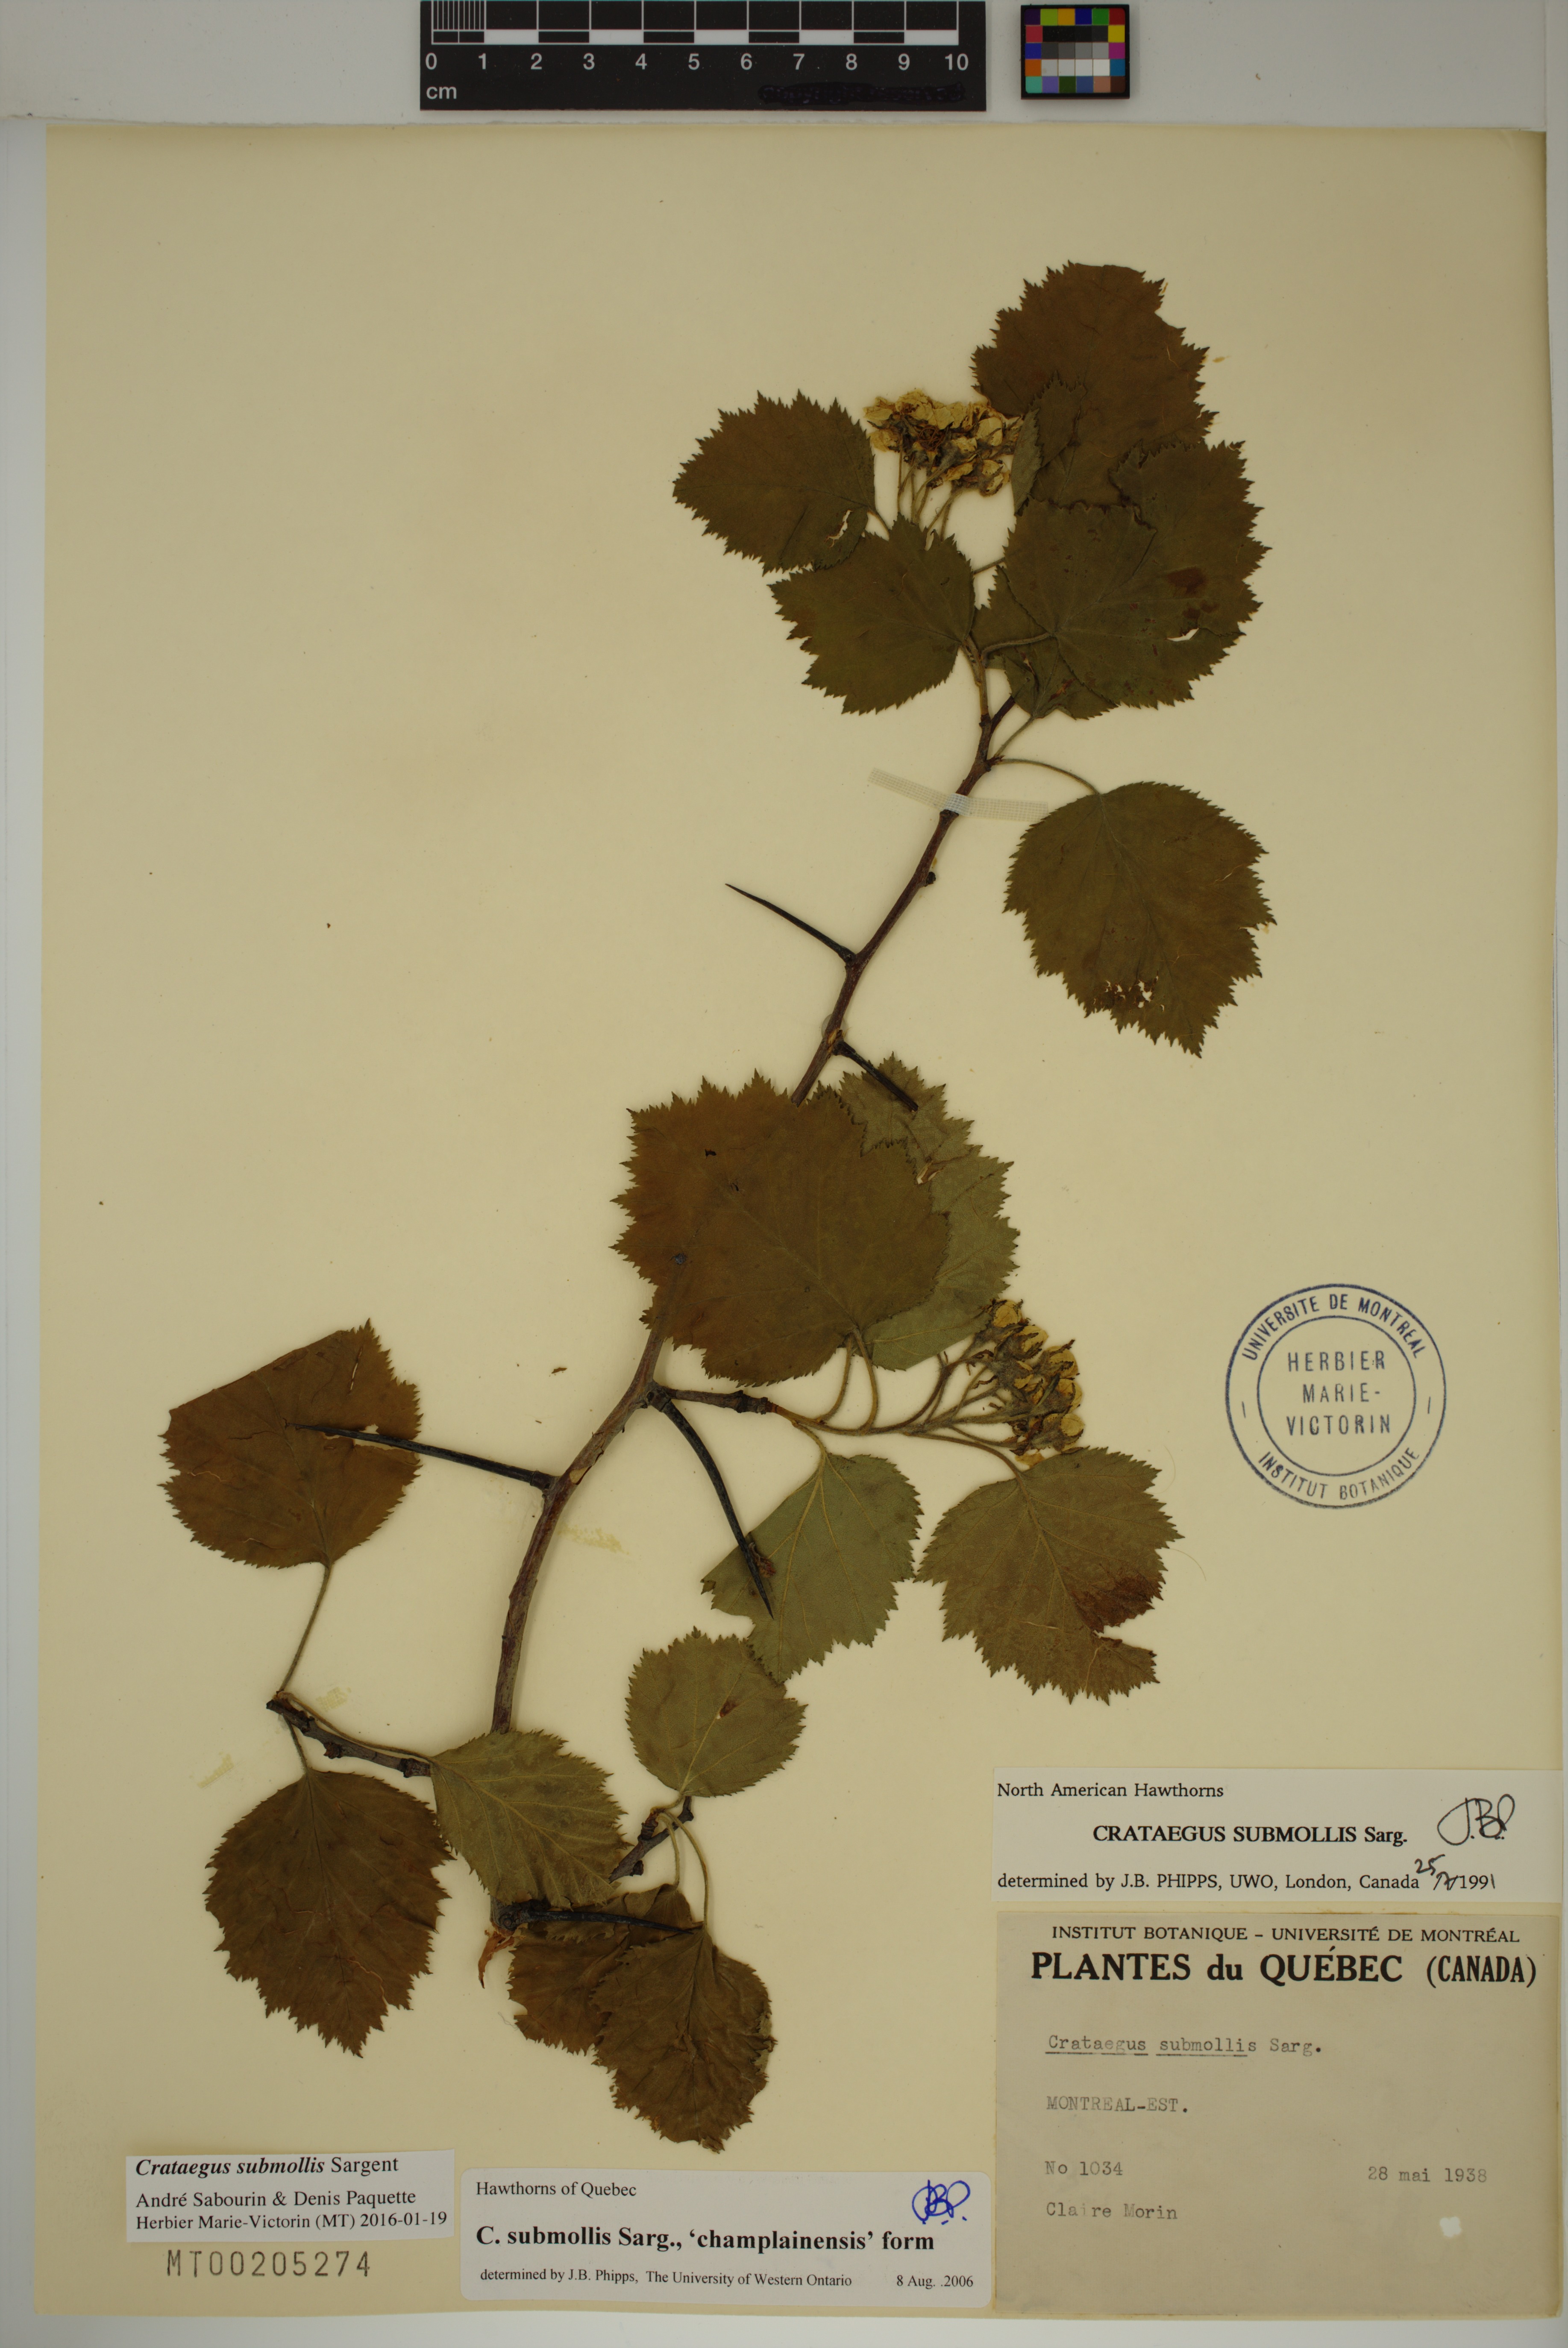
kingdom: Plantae
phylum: Tracheophyta
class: Magnoliopsida
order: Rosales
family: Rosaceae
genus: Crataegus
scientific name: Crataegus submollis
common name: Hairy cockspurthorn
